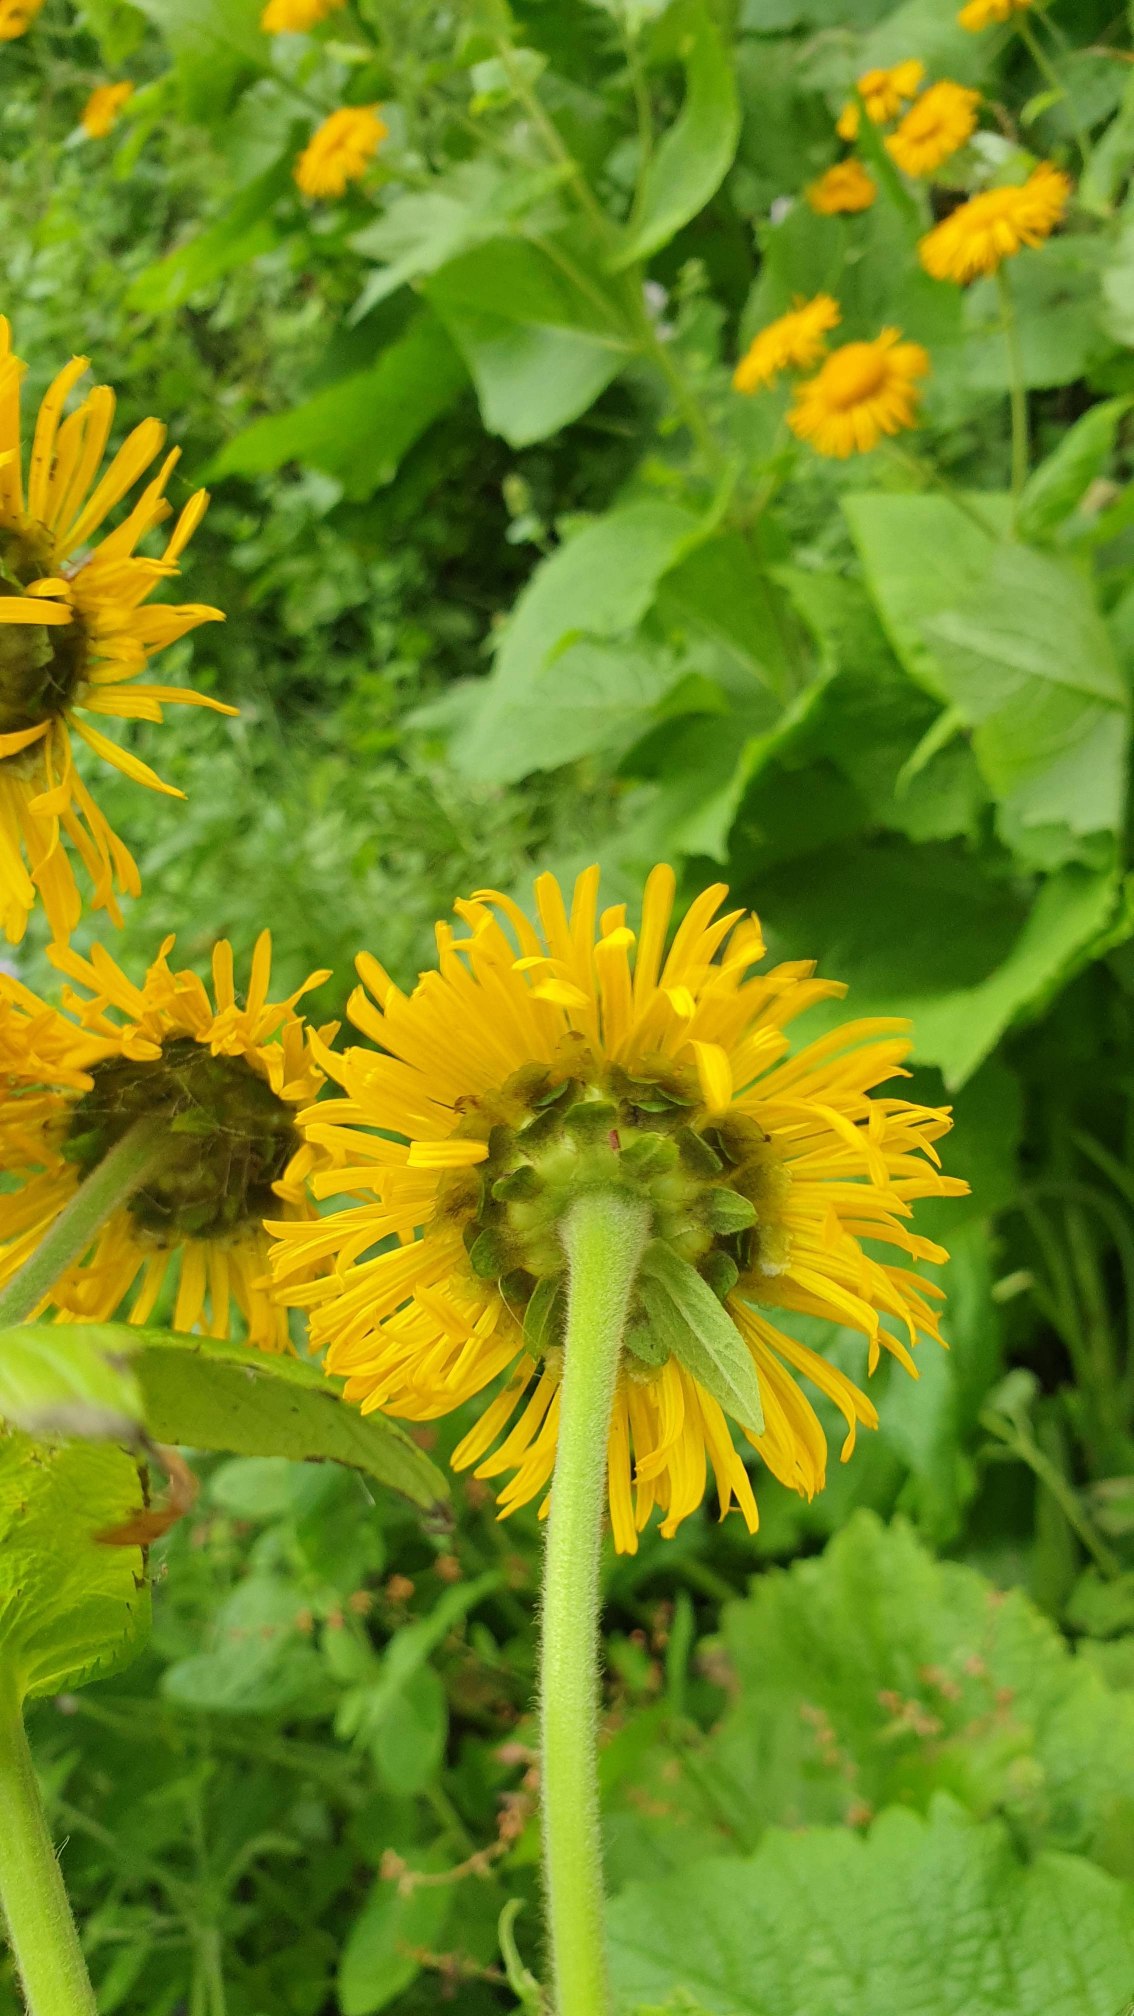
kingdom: Plantae
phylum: Tracheophyta
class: Magnoliopsida
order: Asterales
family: Asteraceae
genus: Telekia
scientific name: Telekia speciosa
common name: Tusindstråle
